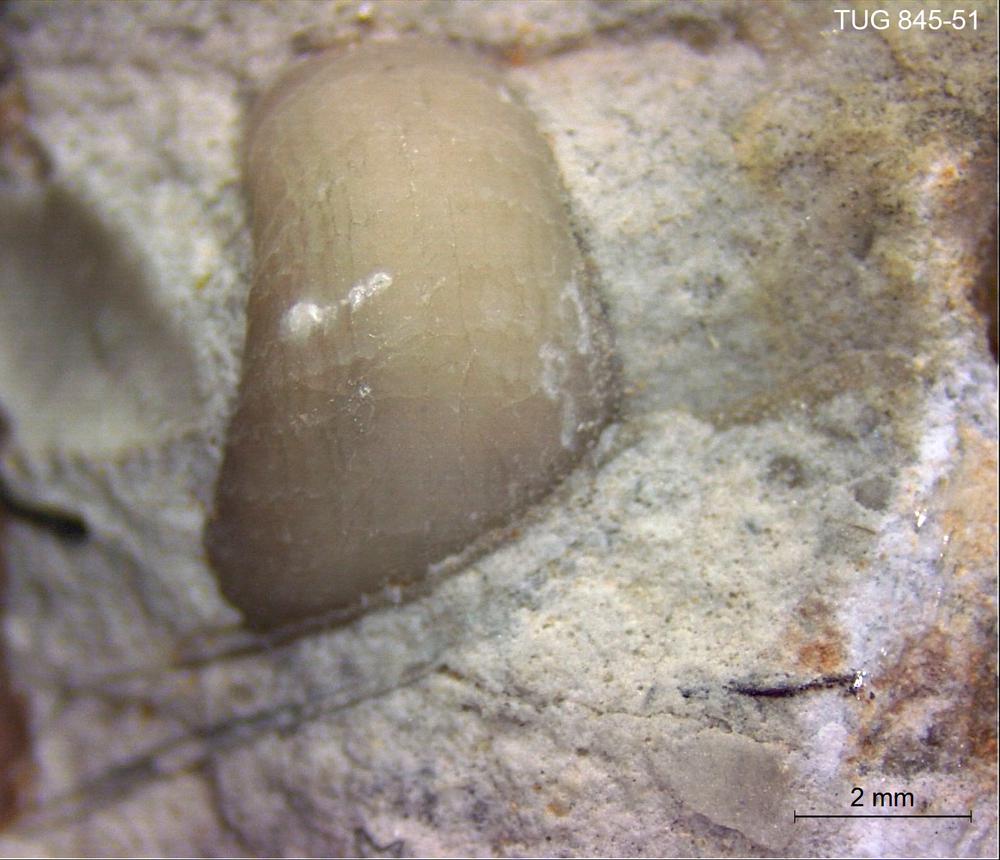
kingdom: Animalia
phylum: Mollusca
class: Gastropoda
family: Bucaniidae
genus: Bucania
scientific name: Bucania Bellerophon czekanowskii
